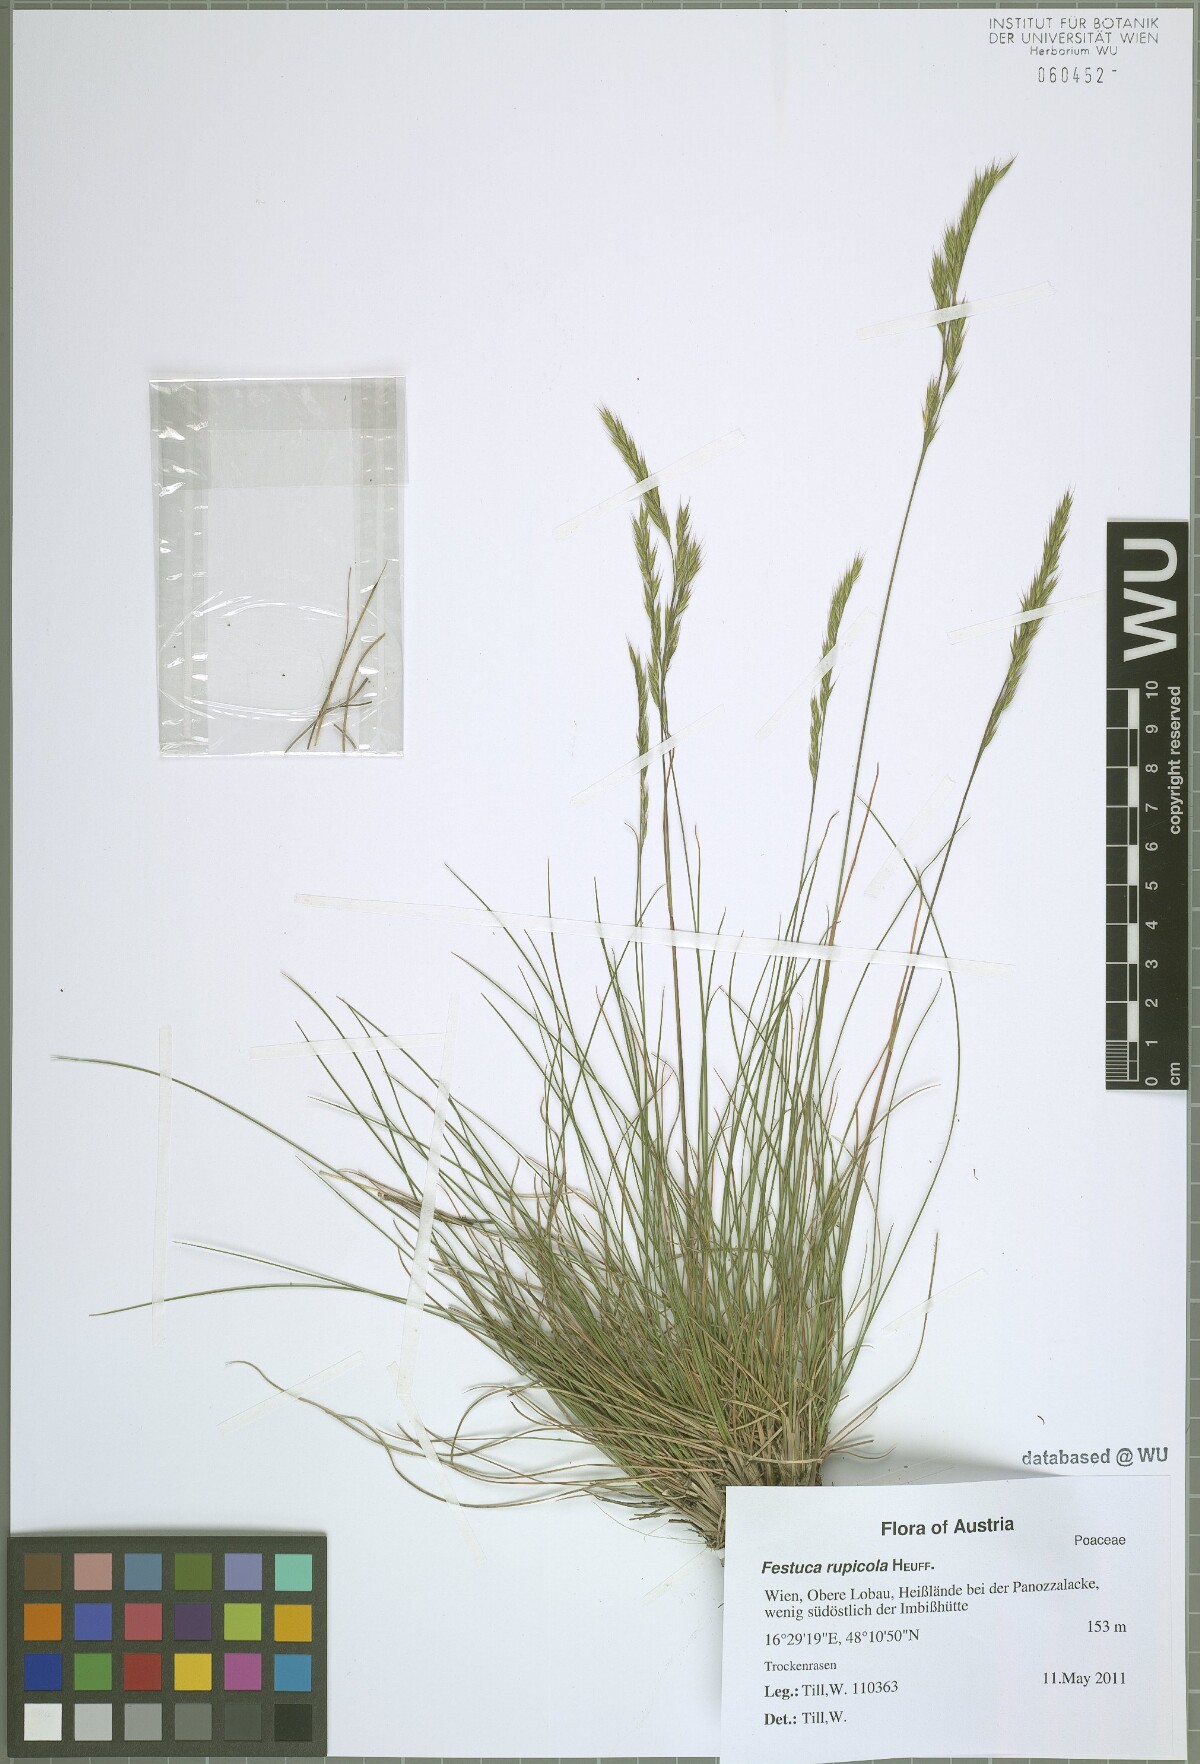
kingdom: Plantae
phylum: Tracheophyta
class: Liliopsida
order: Poales
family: Poaceae
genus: Festuca
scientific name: Festuca rupicola
